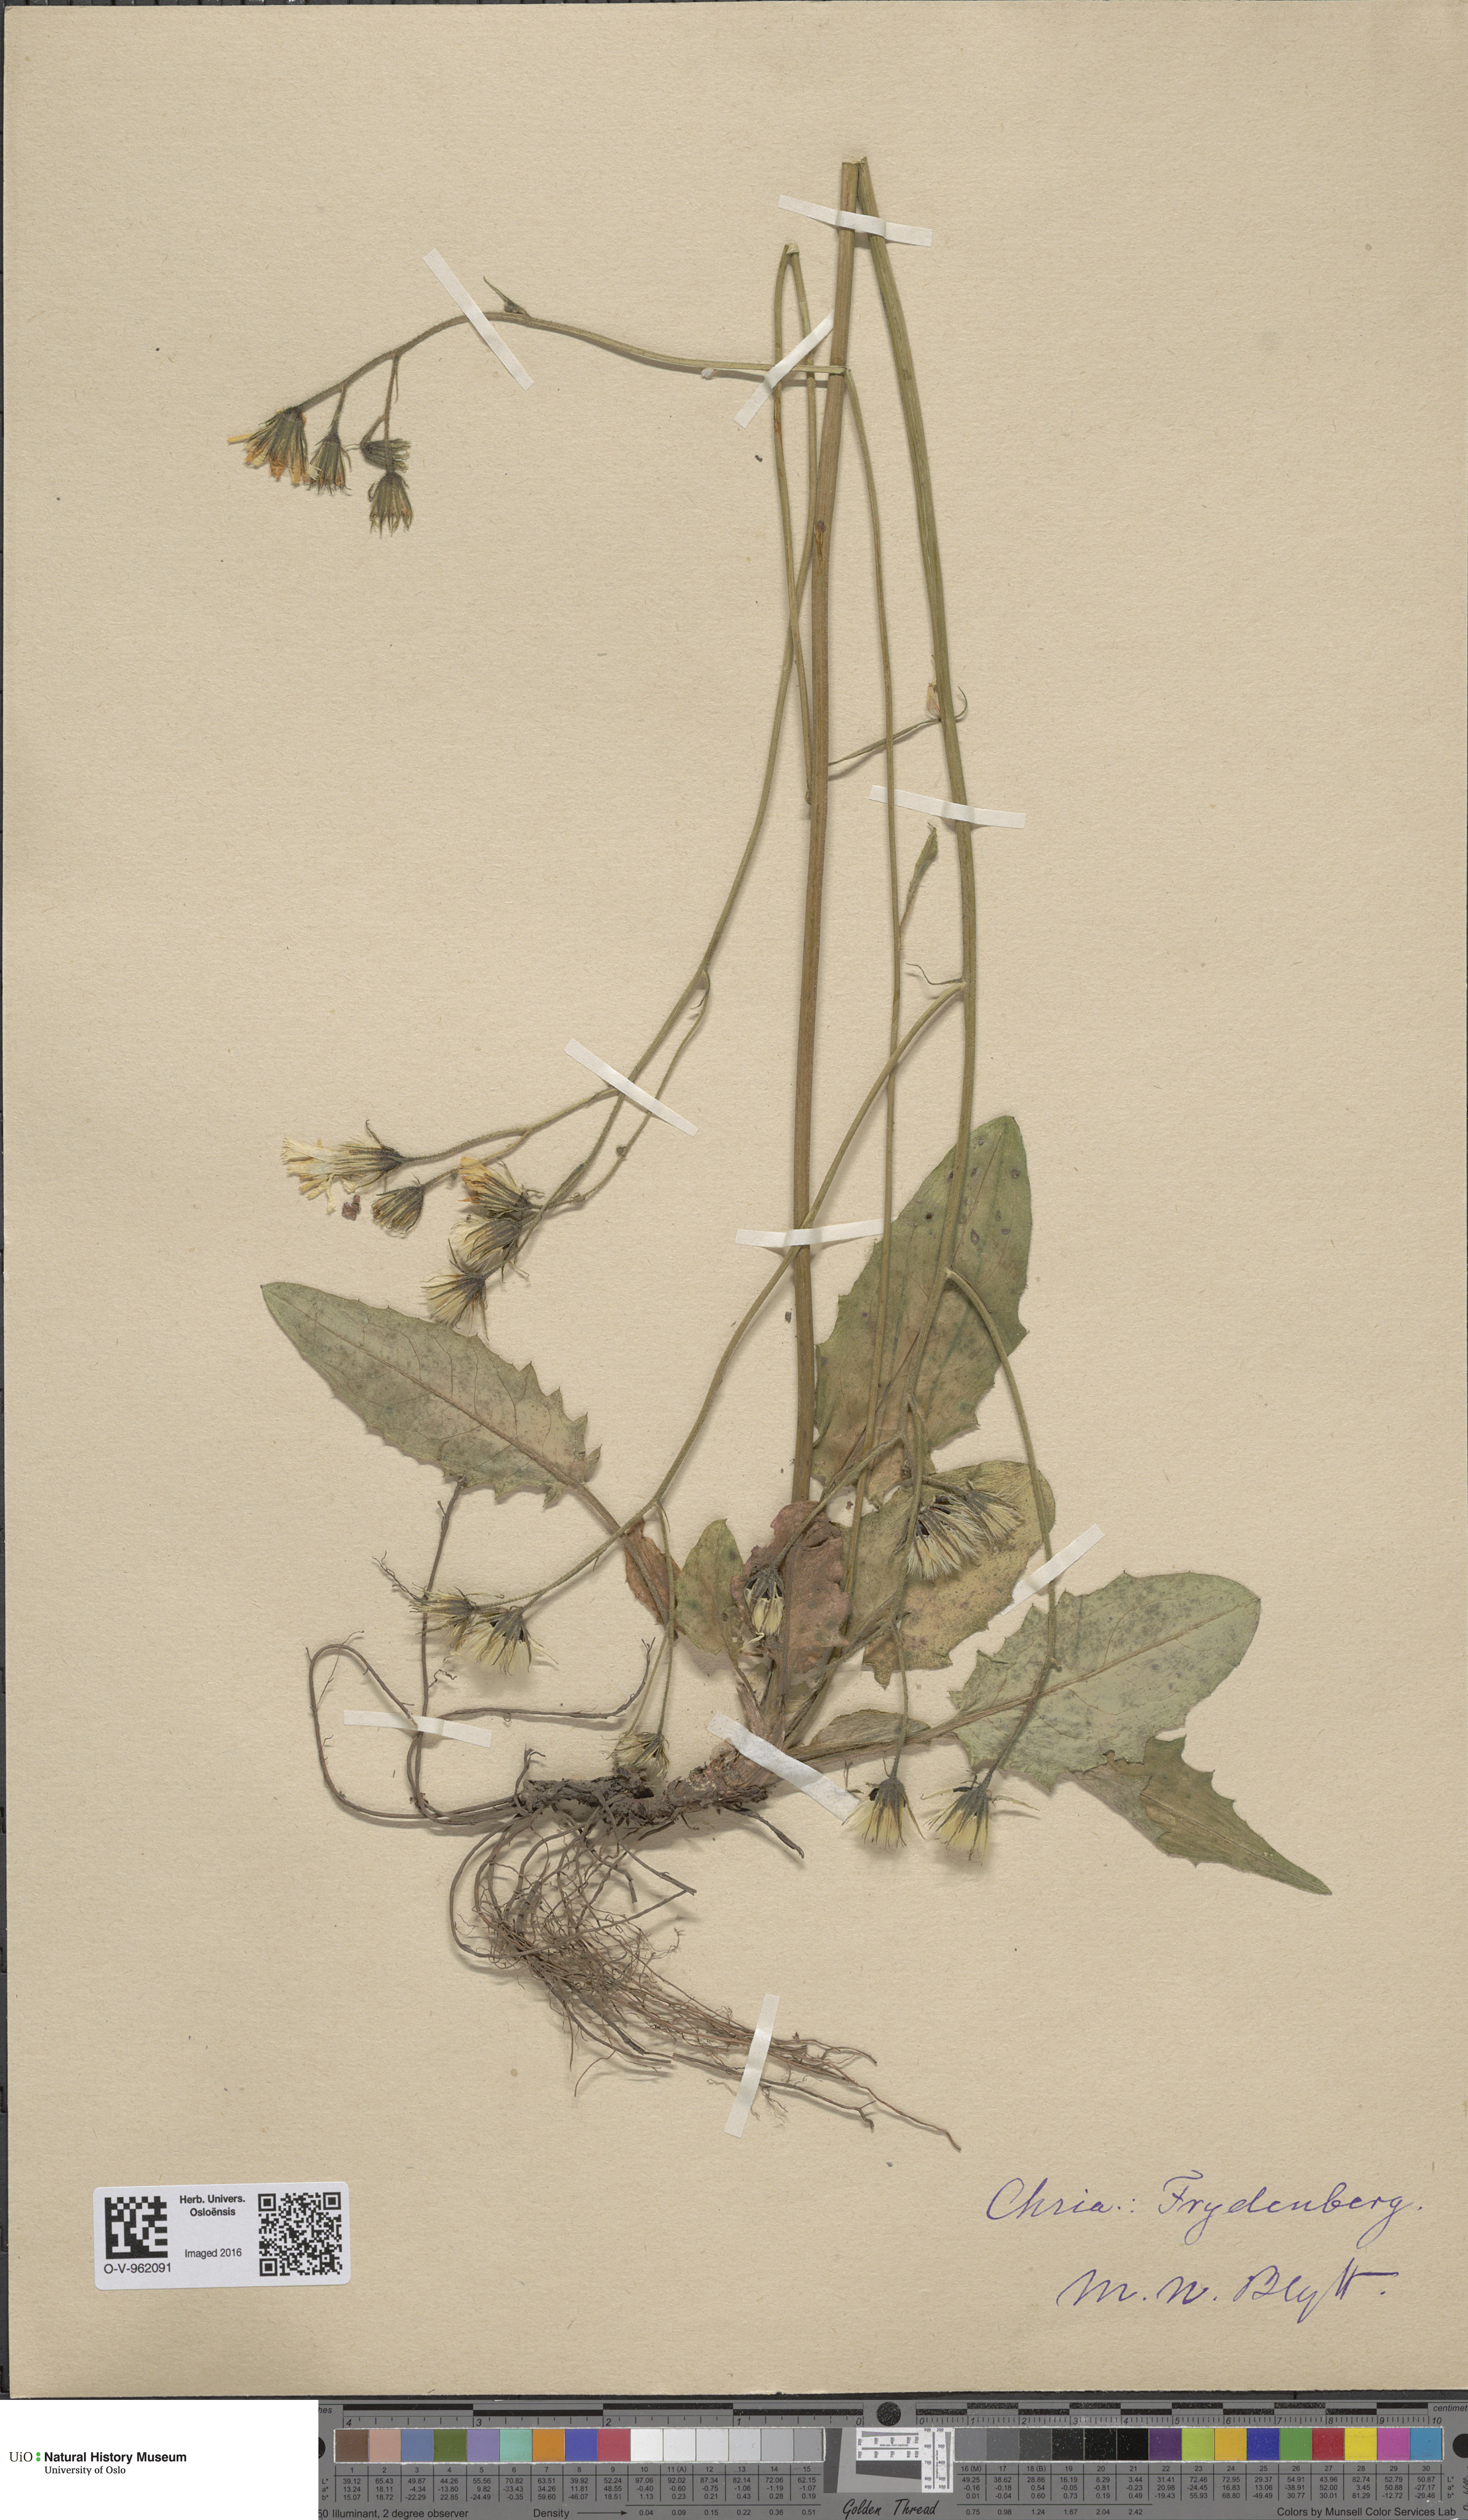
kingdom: Plantae
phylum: Tracheophyta
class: Magnoliopsida
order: Asterales
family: Asteraceae
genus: Hieracium
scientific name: Hieracium
